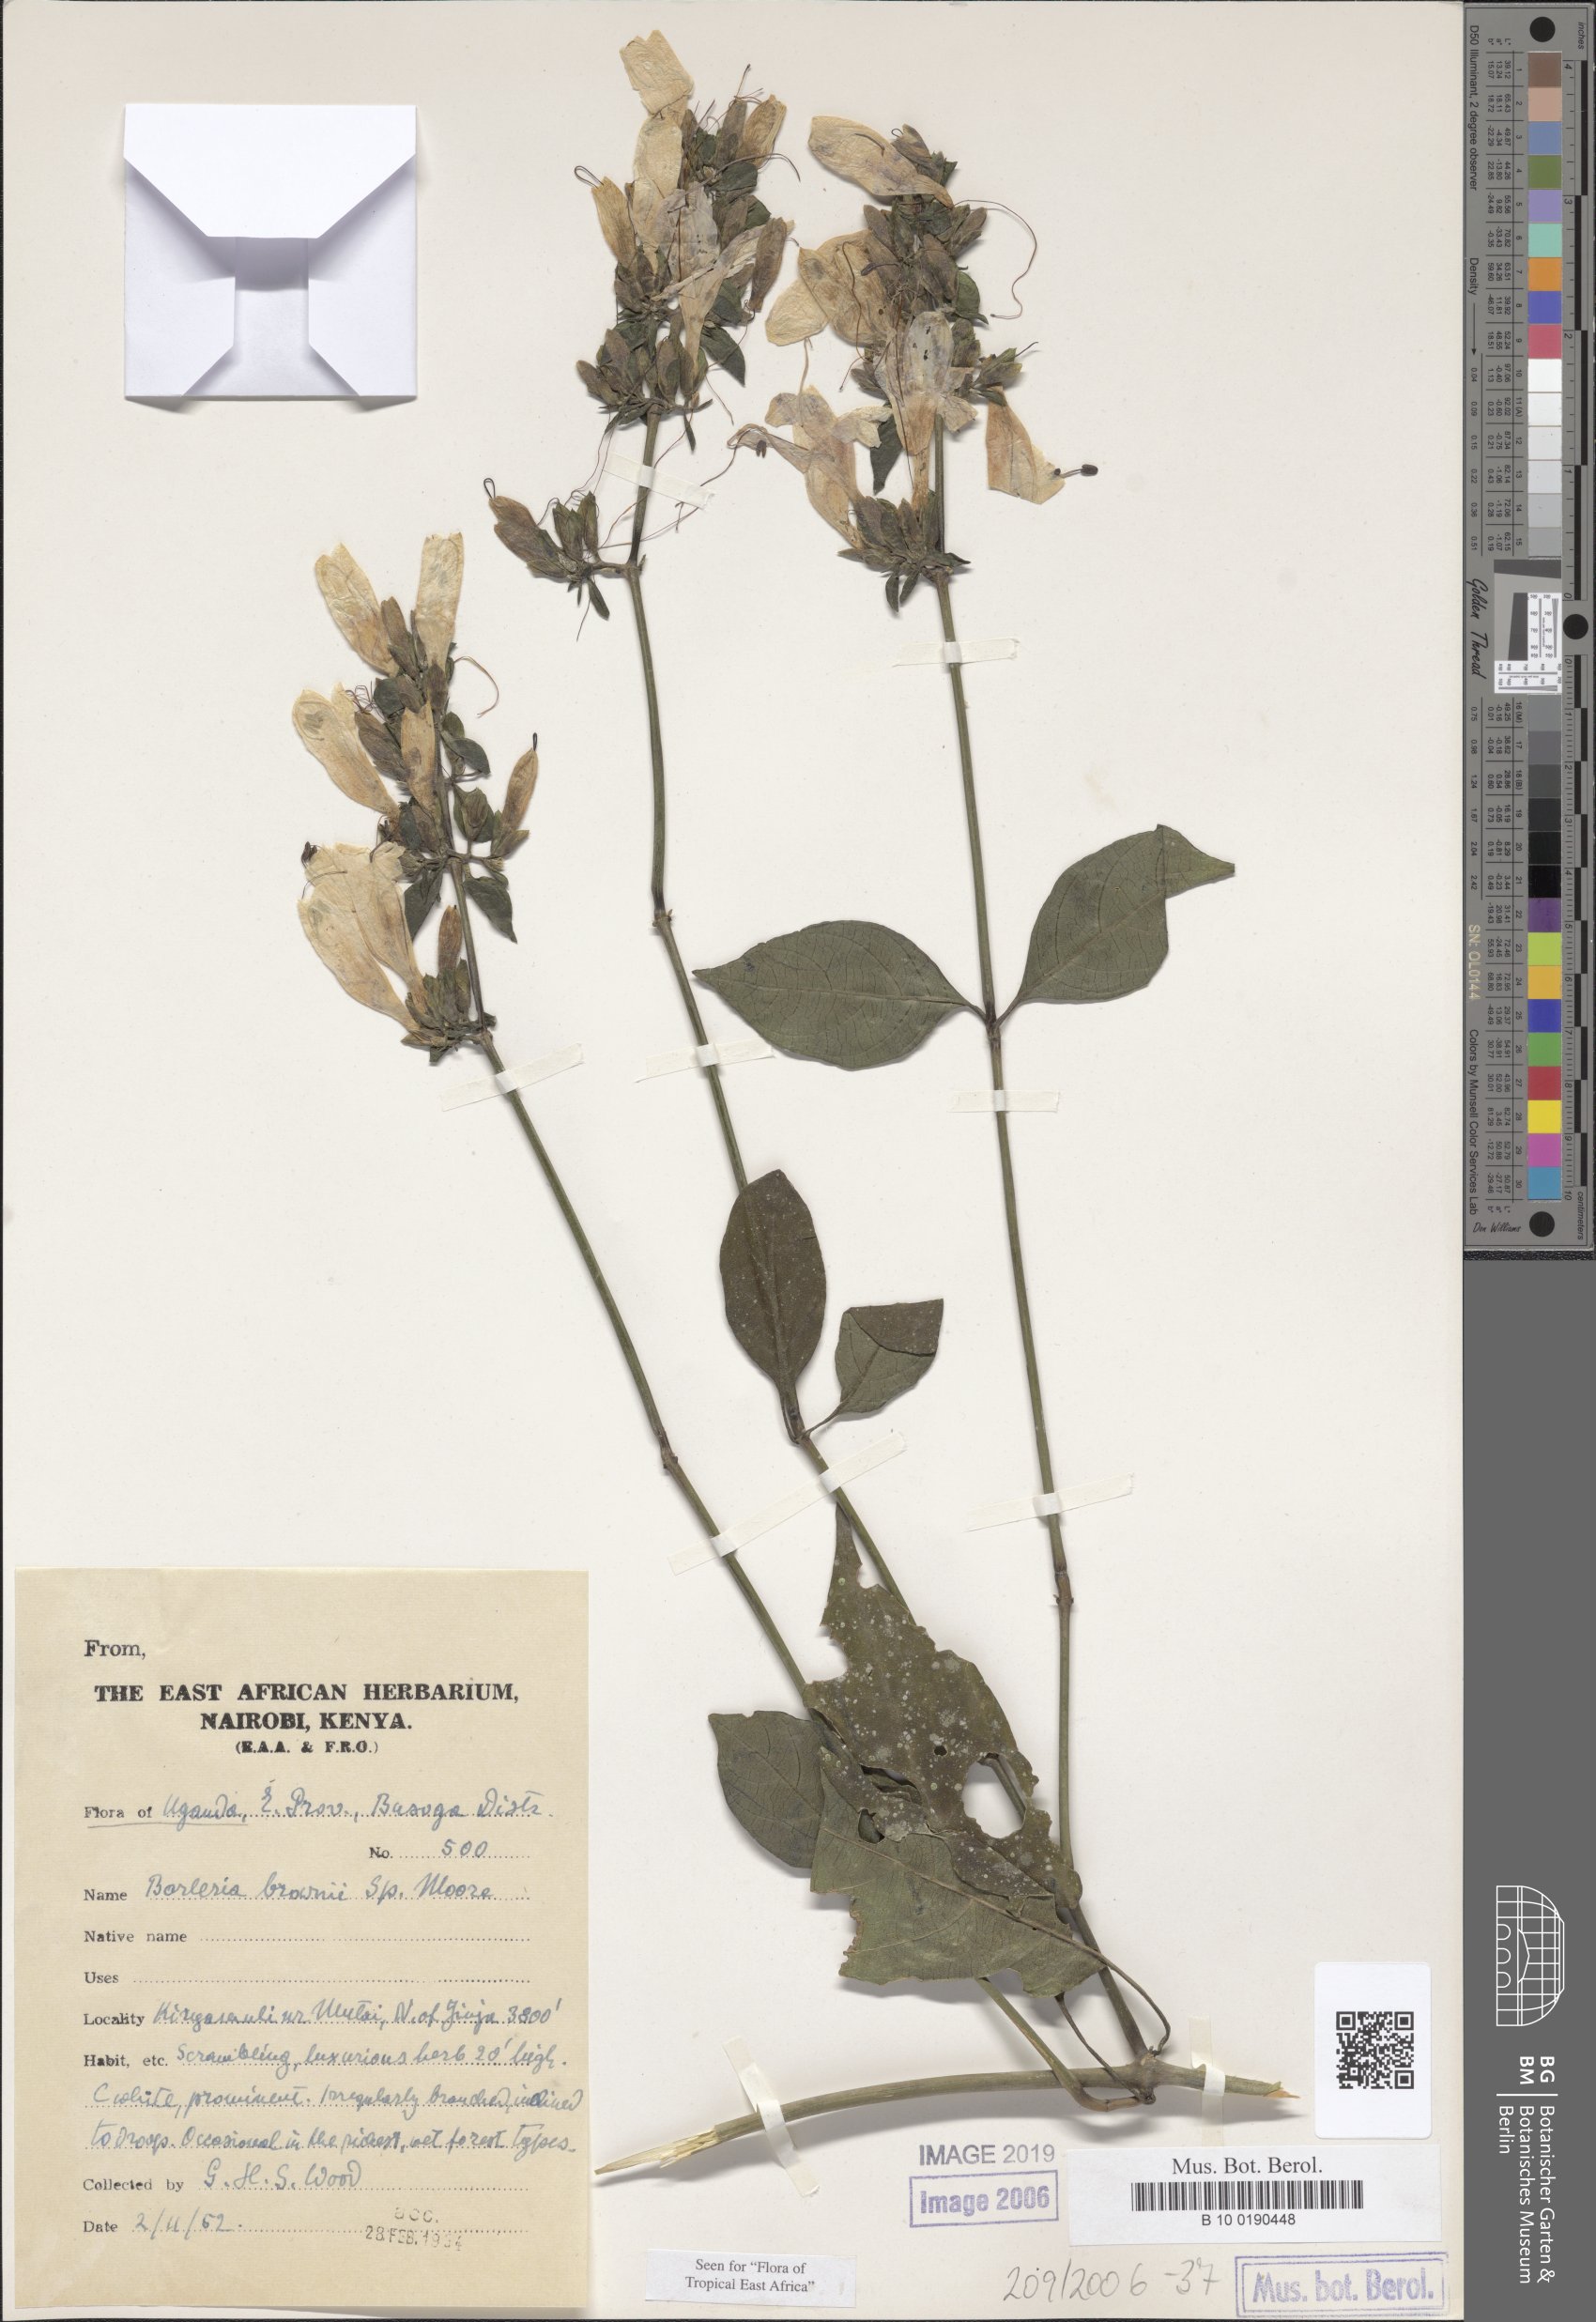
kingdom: Plantae
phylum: Tracheophyta
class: Magnoliopsida
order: Lamiales
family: Acanthaceae
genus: Barleria
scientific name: Barleria brownii
